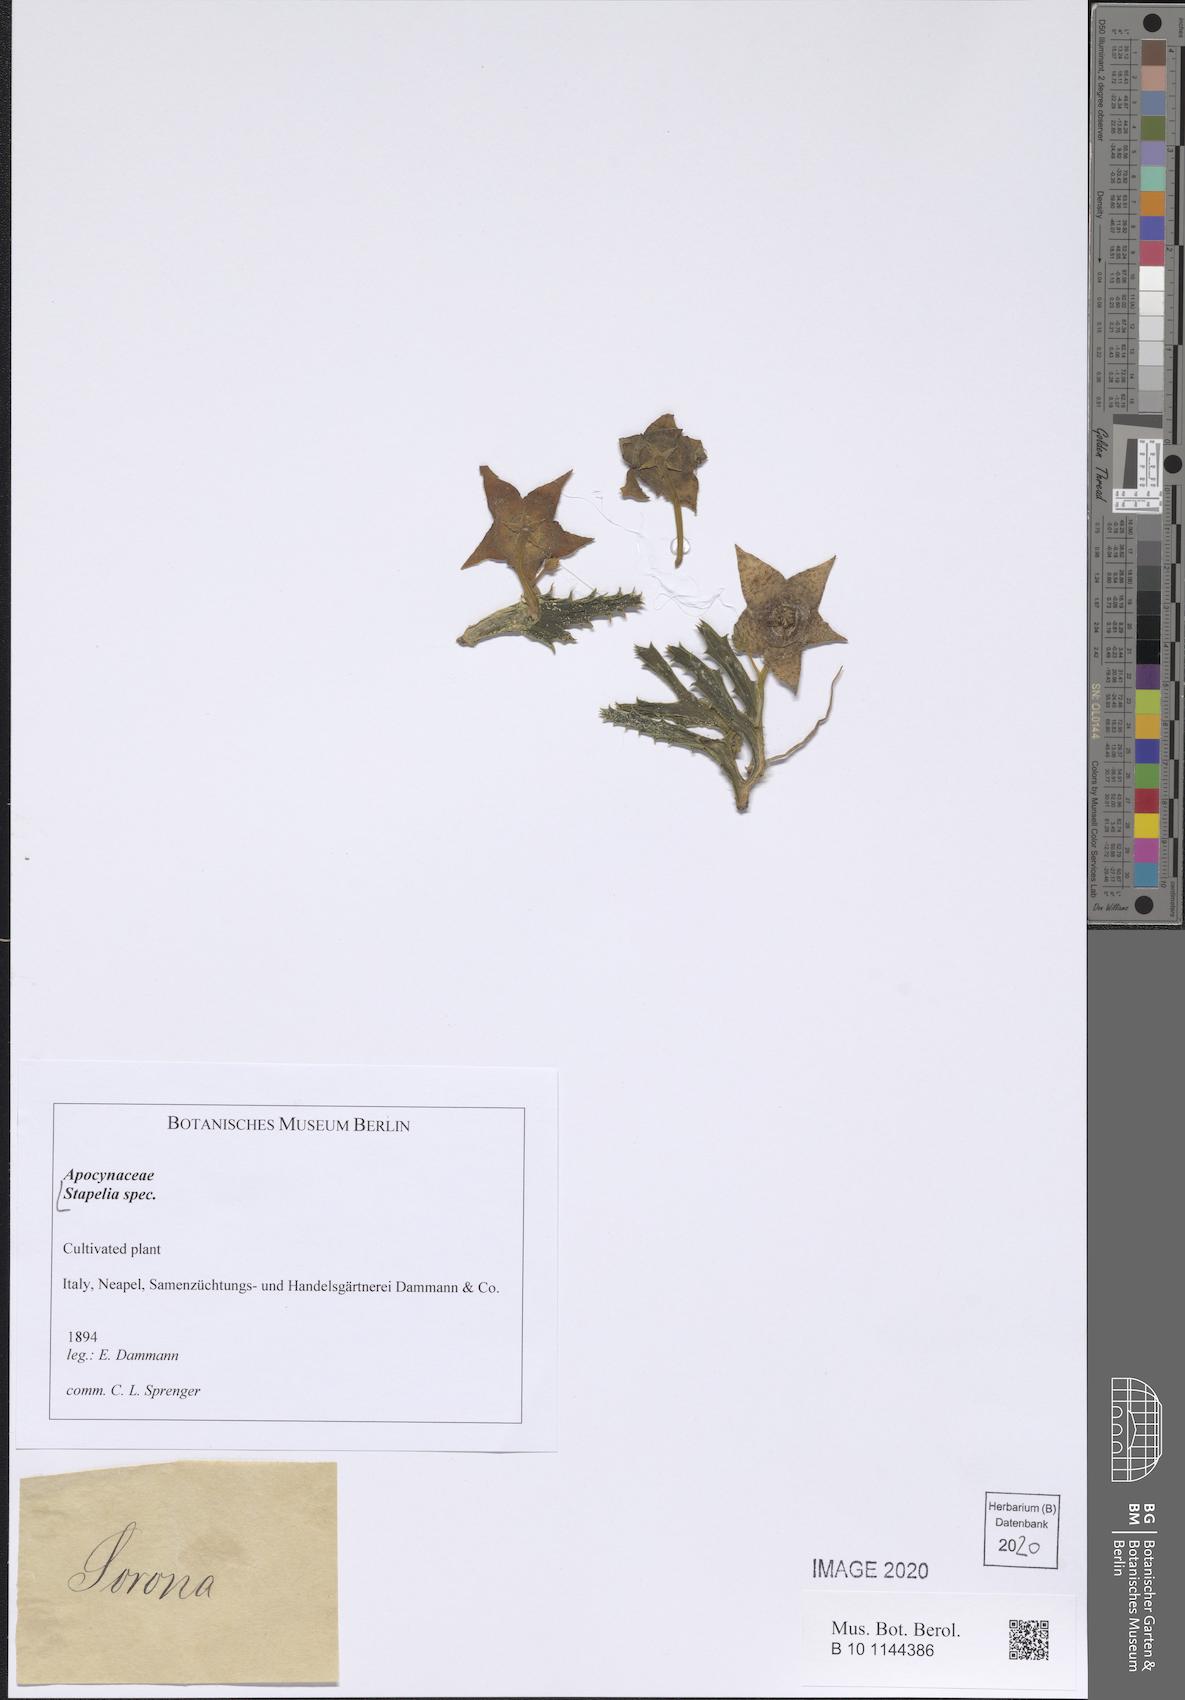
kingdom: Plantae
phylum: Tracheophyta
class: Magnoliopsida
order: Gentianales
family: Apocynaceae
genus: Stapelia
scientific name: Stapelia
